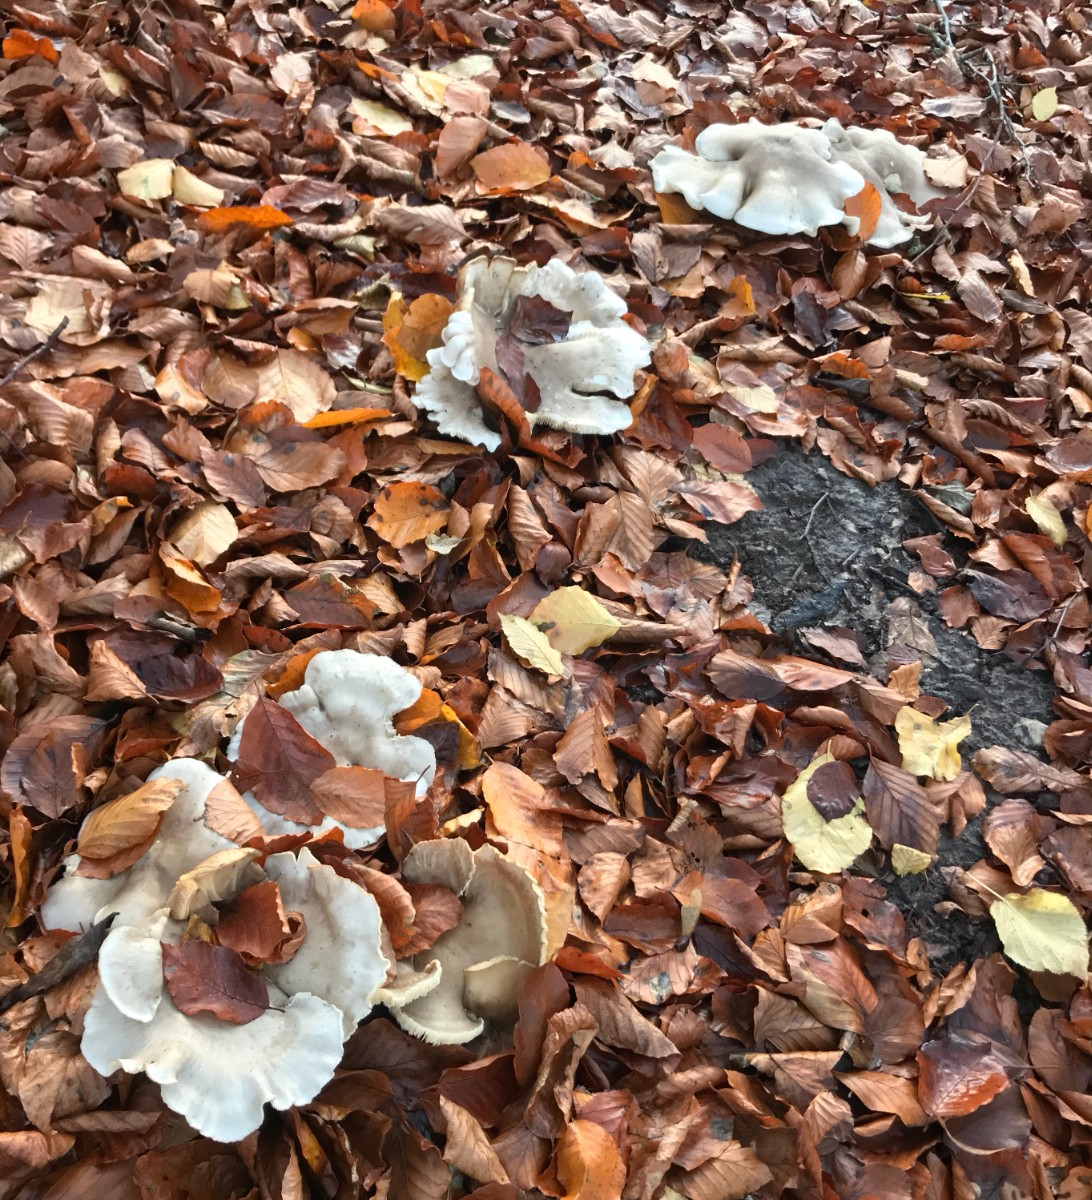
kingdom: Fungi
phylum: Basidiomycota
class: Agaricomycetes
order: Agaricales
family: Tricholomataceae
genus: Clitocybe
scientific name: Clitocybe nebularis
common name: tåge-tragthat
